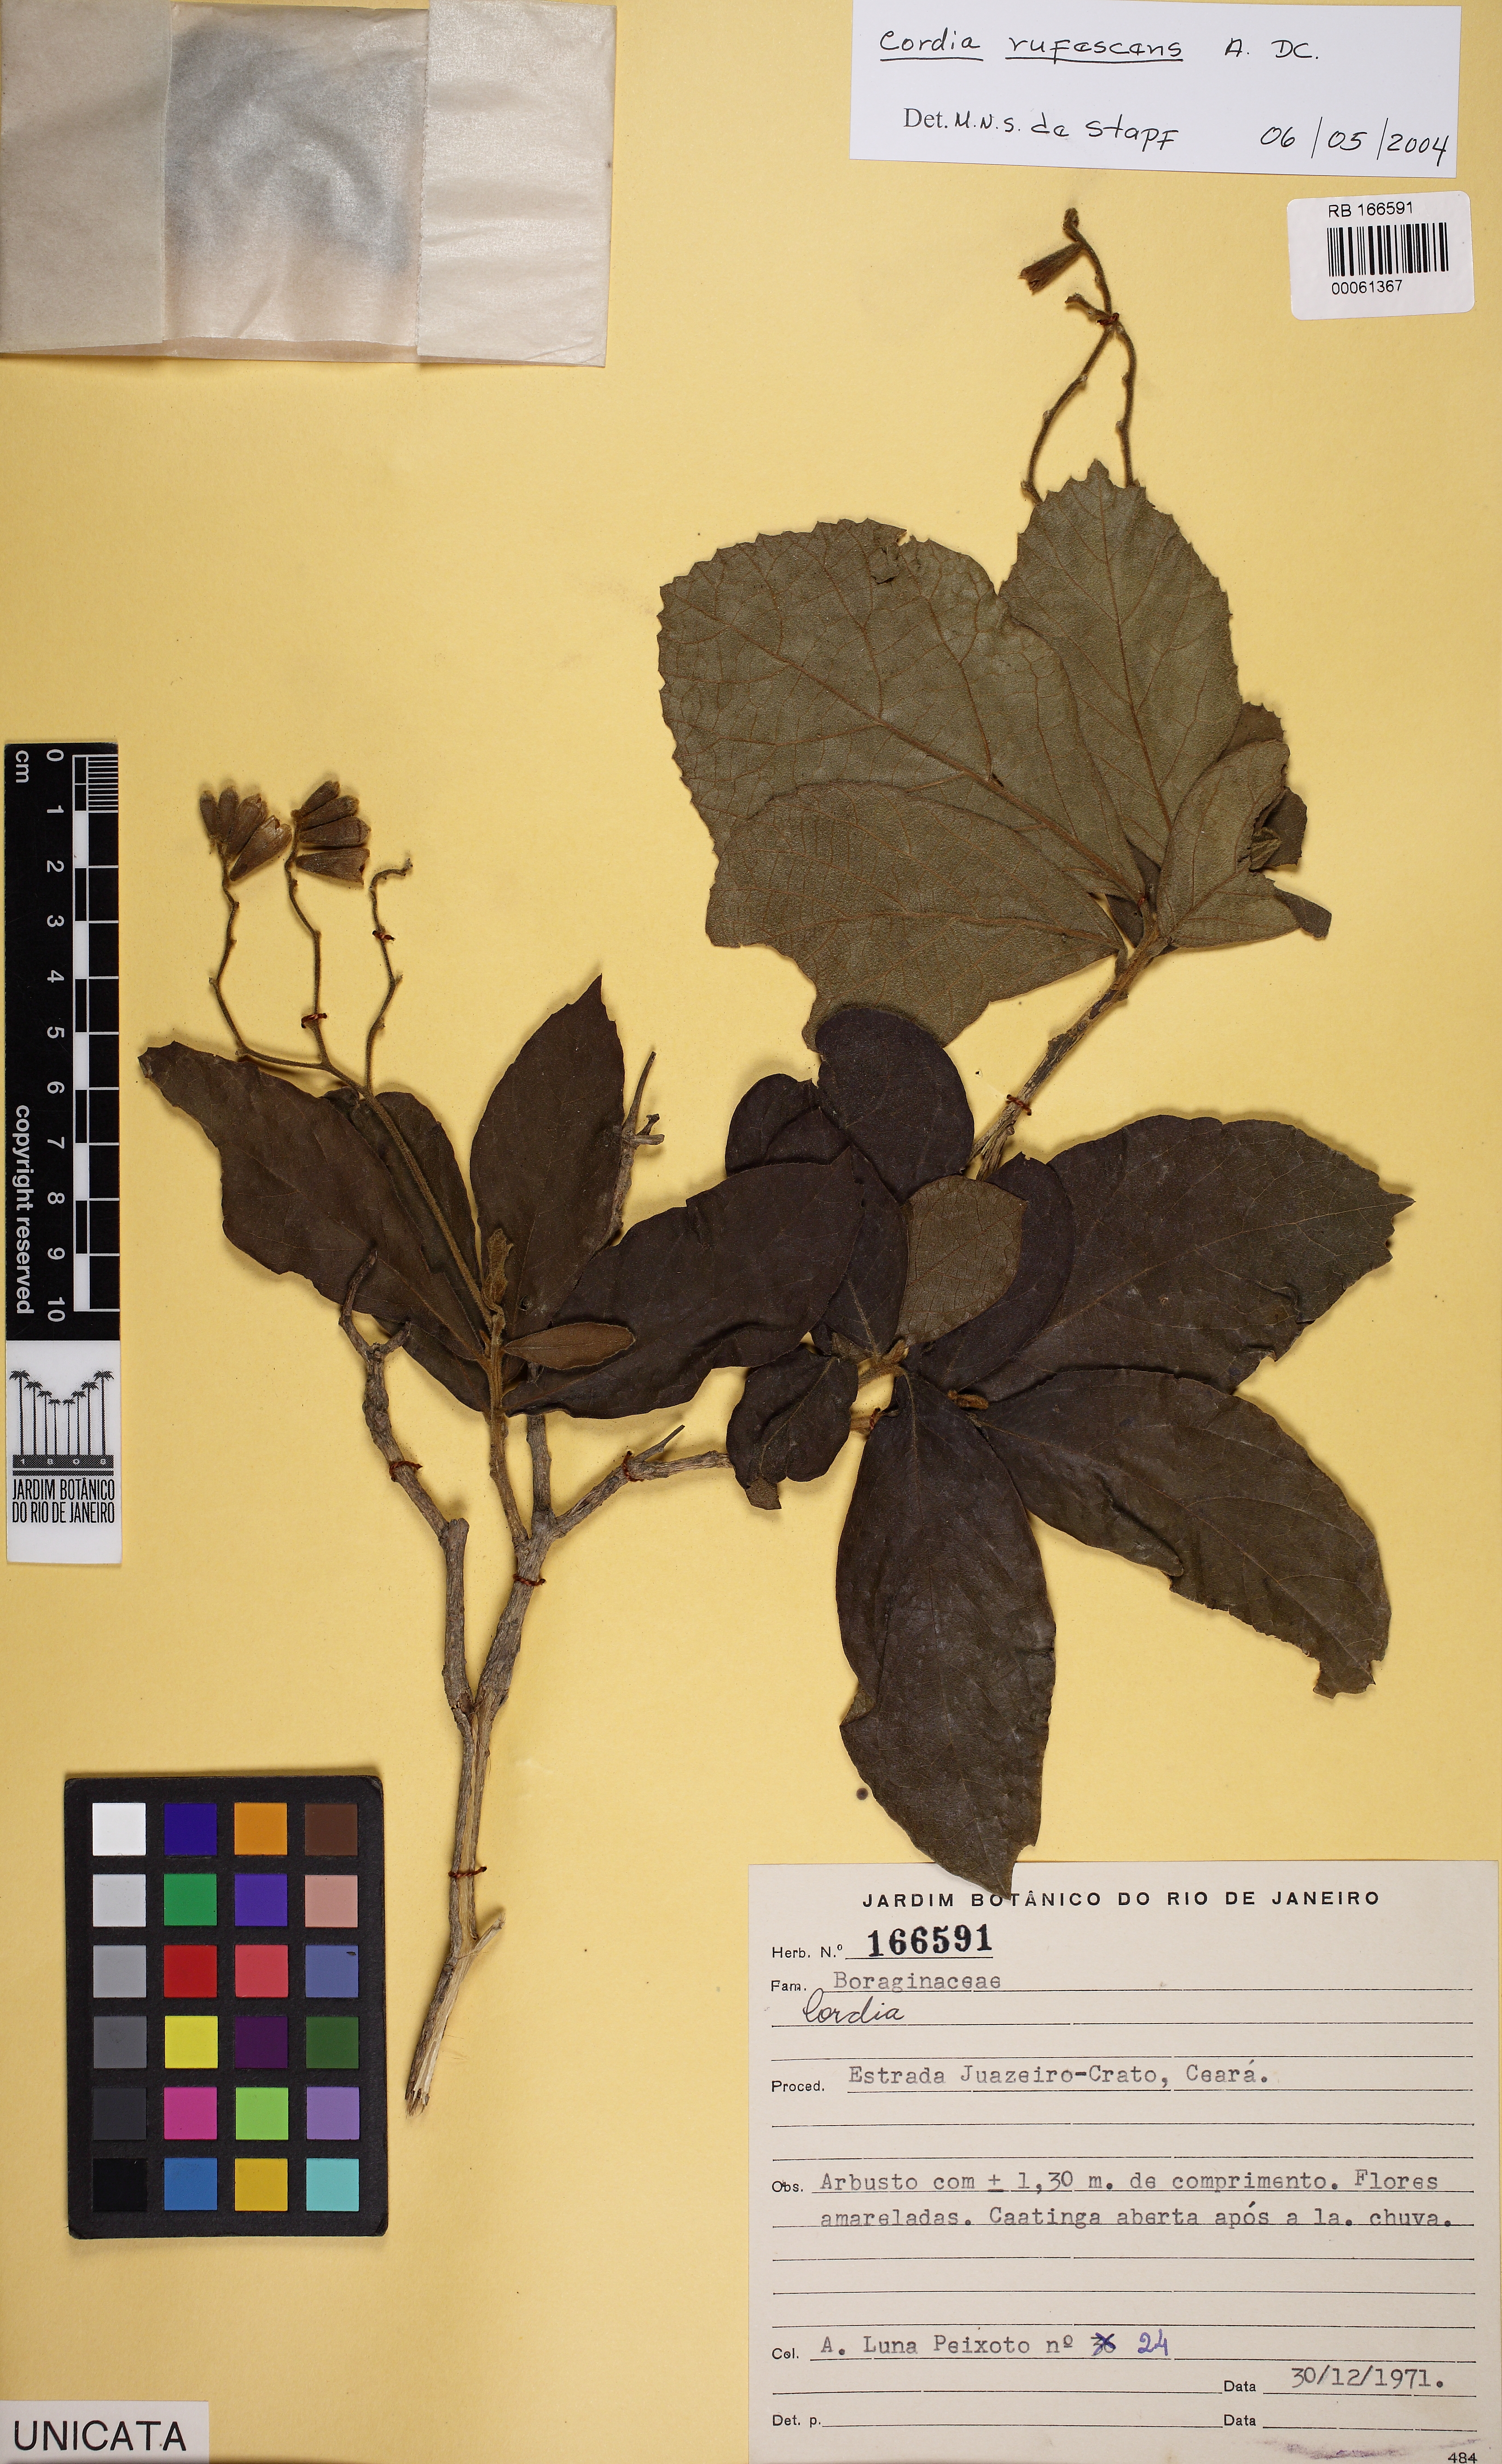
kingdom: Plantae
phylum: Tracheophyta
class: Magnoliopsida
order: Boraginales
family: Cordiaceae
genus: Cordia
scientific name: Cordia
